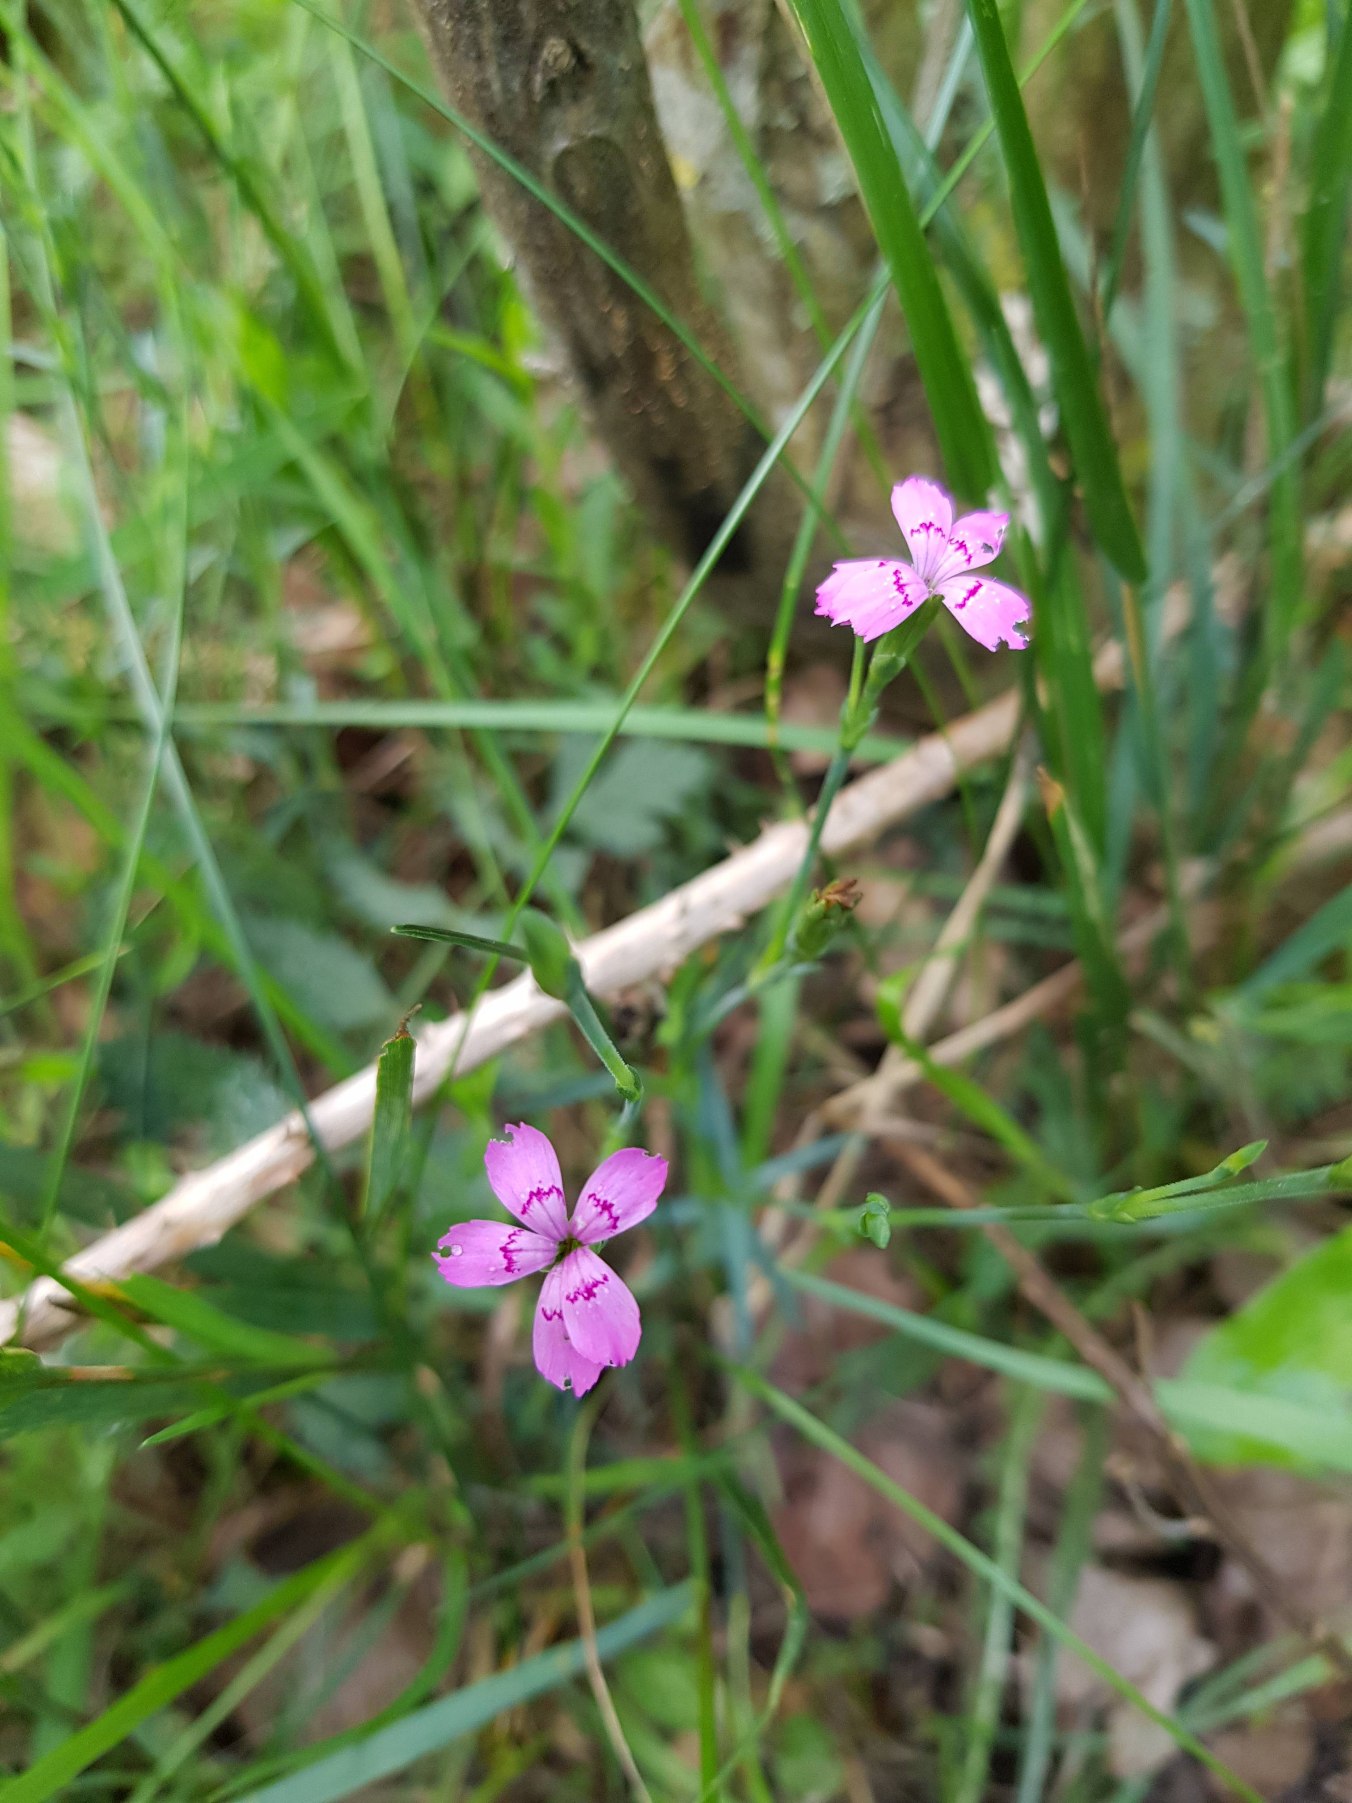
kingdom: Plantae
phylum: Tracheophyta
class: Magnoliopsida
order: Caryophyllales
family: Caryophyllaceae
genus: Dianthus
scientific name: Dianthus deltoides
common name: Bakke-nellike
